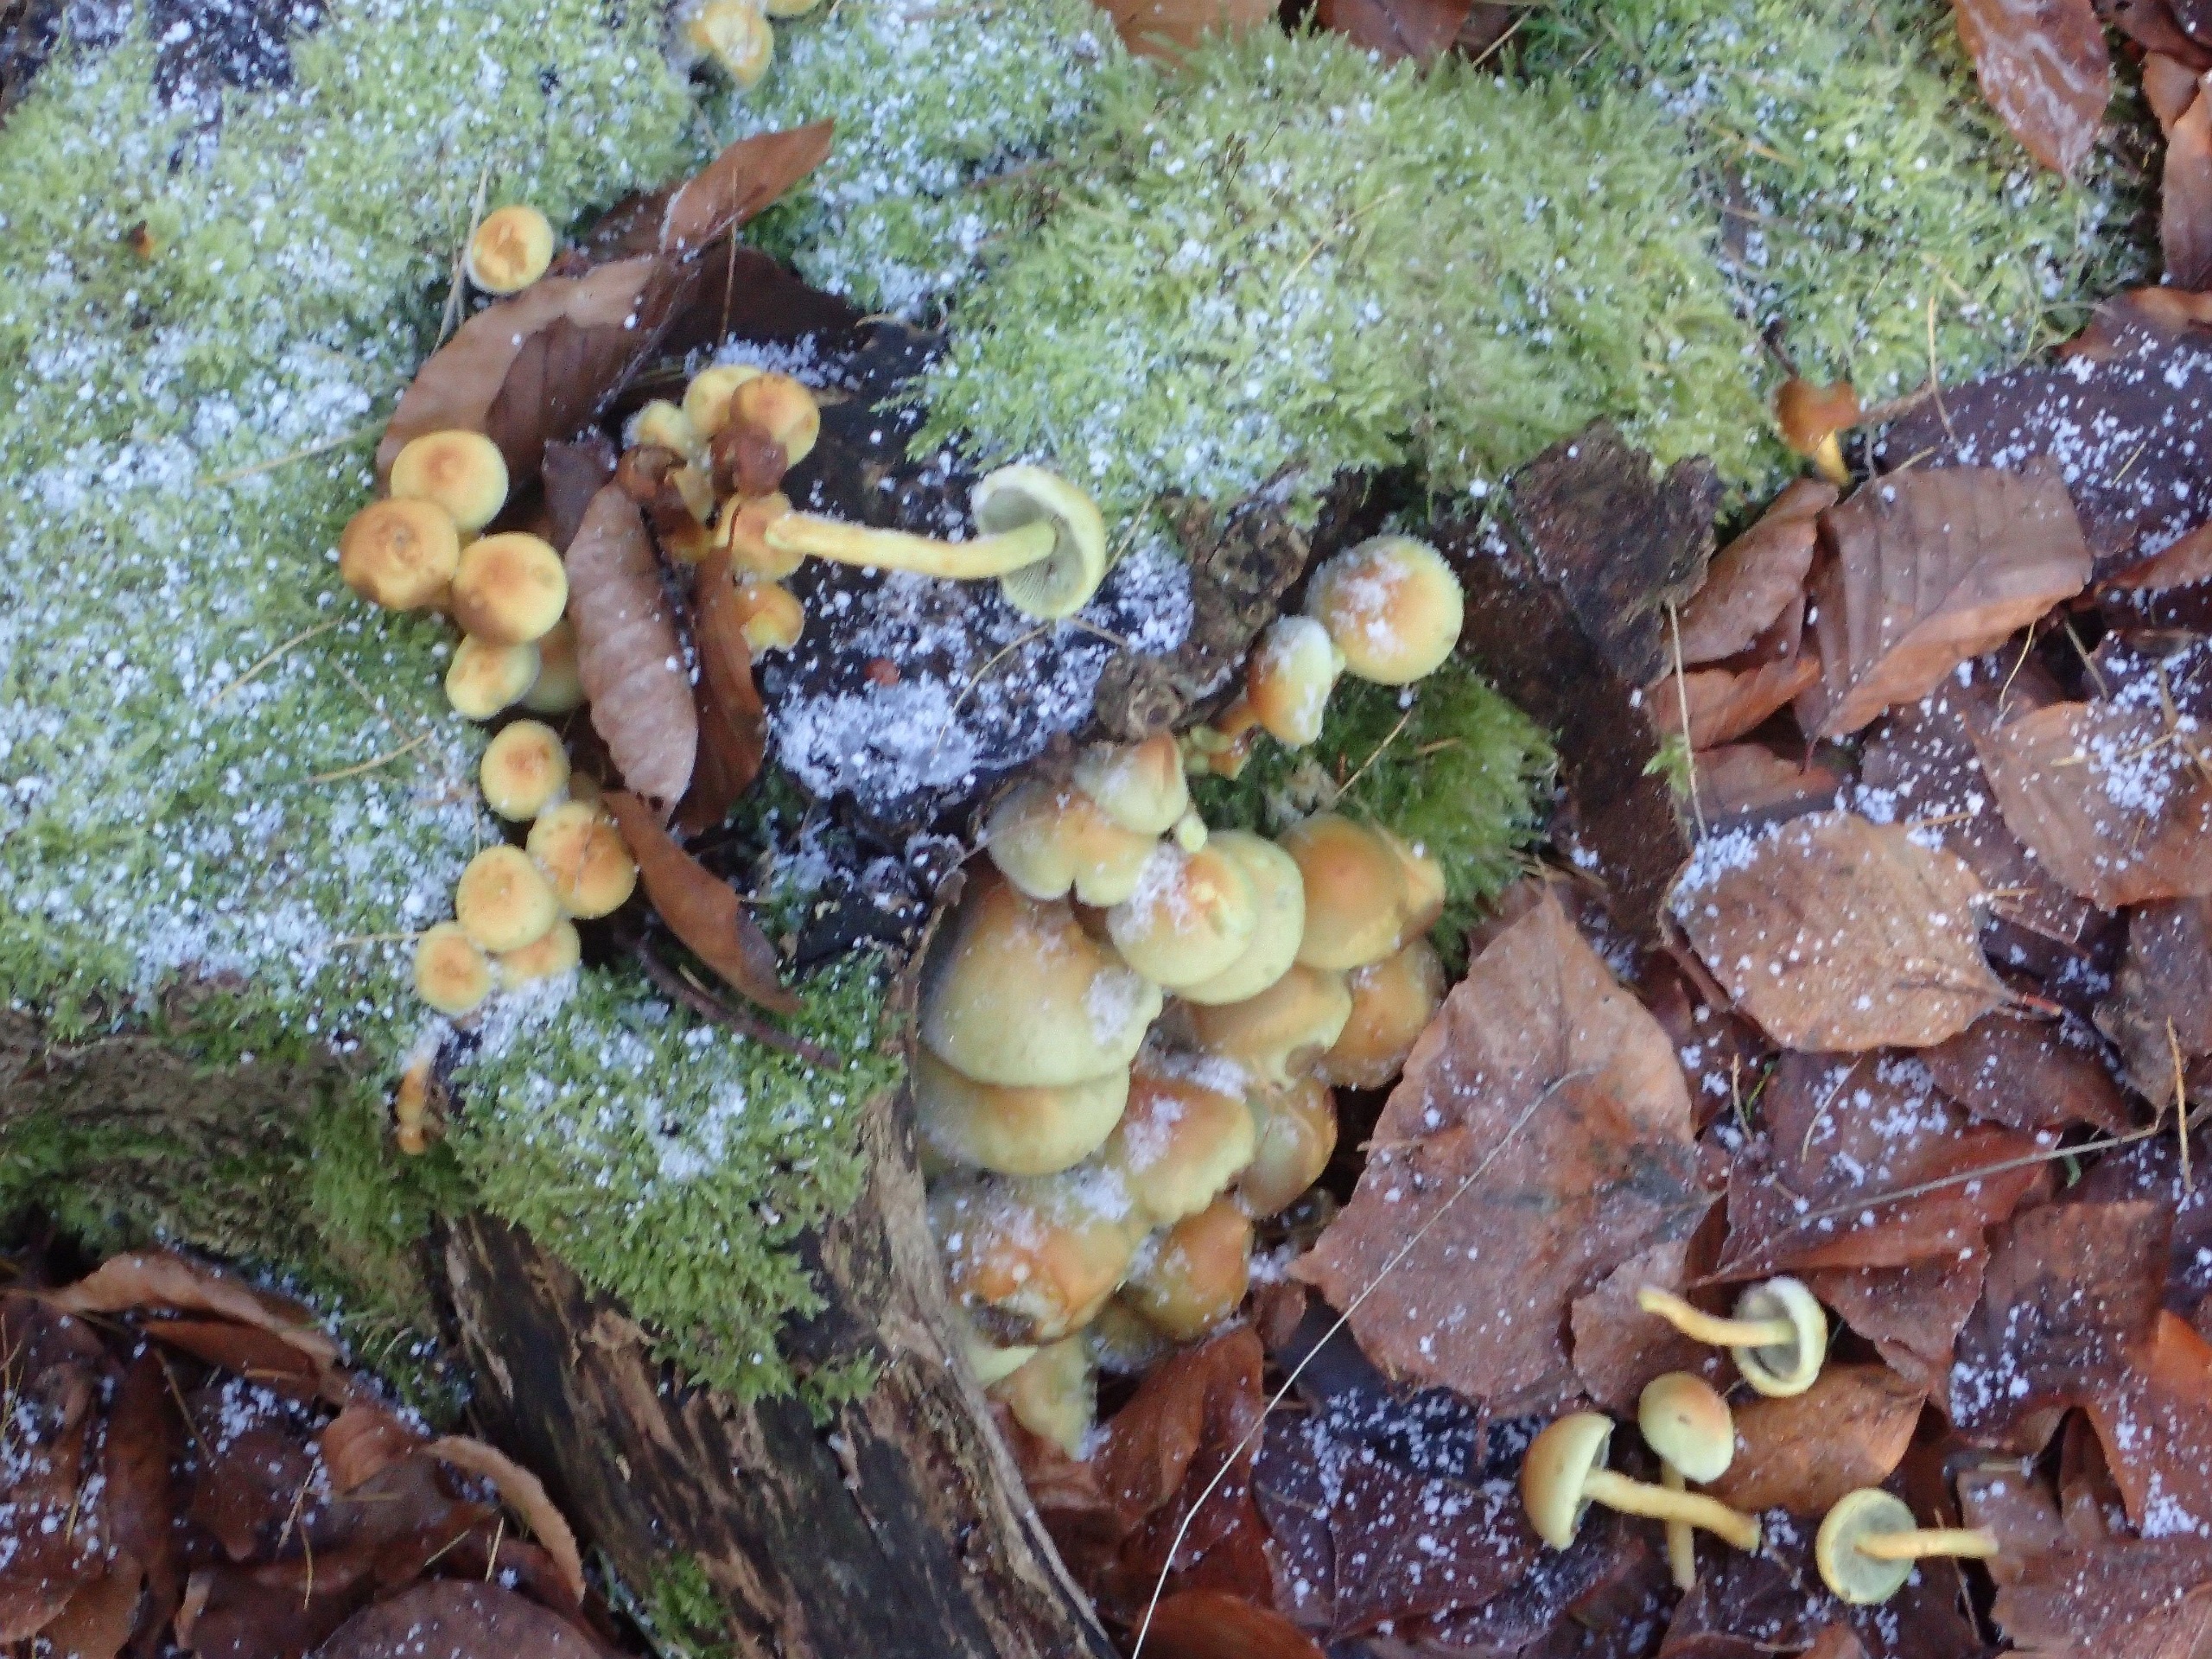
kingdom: Fungi
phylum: Basidiomycota
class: Agaricomycetes
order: Agaricales
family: Strophariaceae
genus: Hypholoma
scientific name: Hypholoma fasciculare
